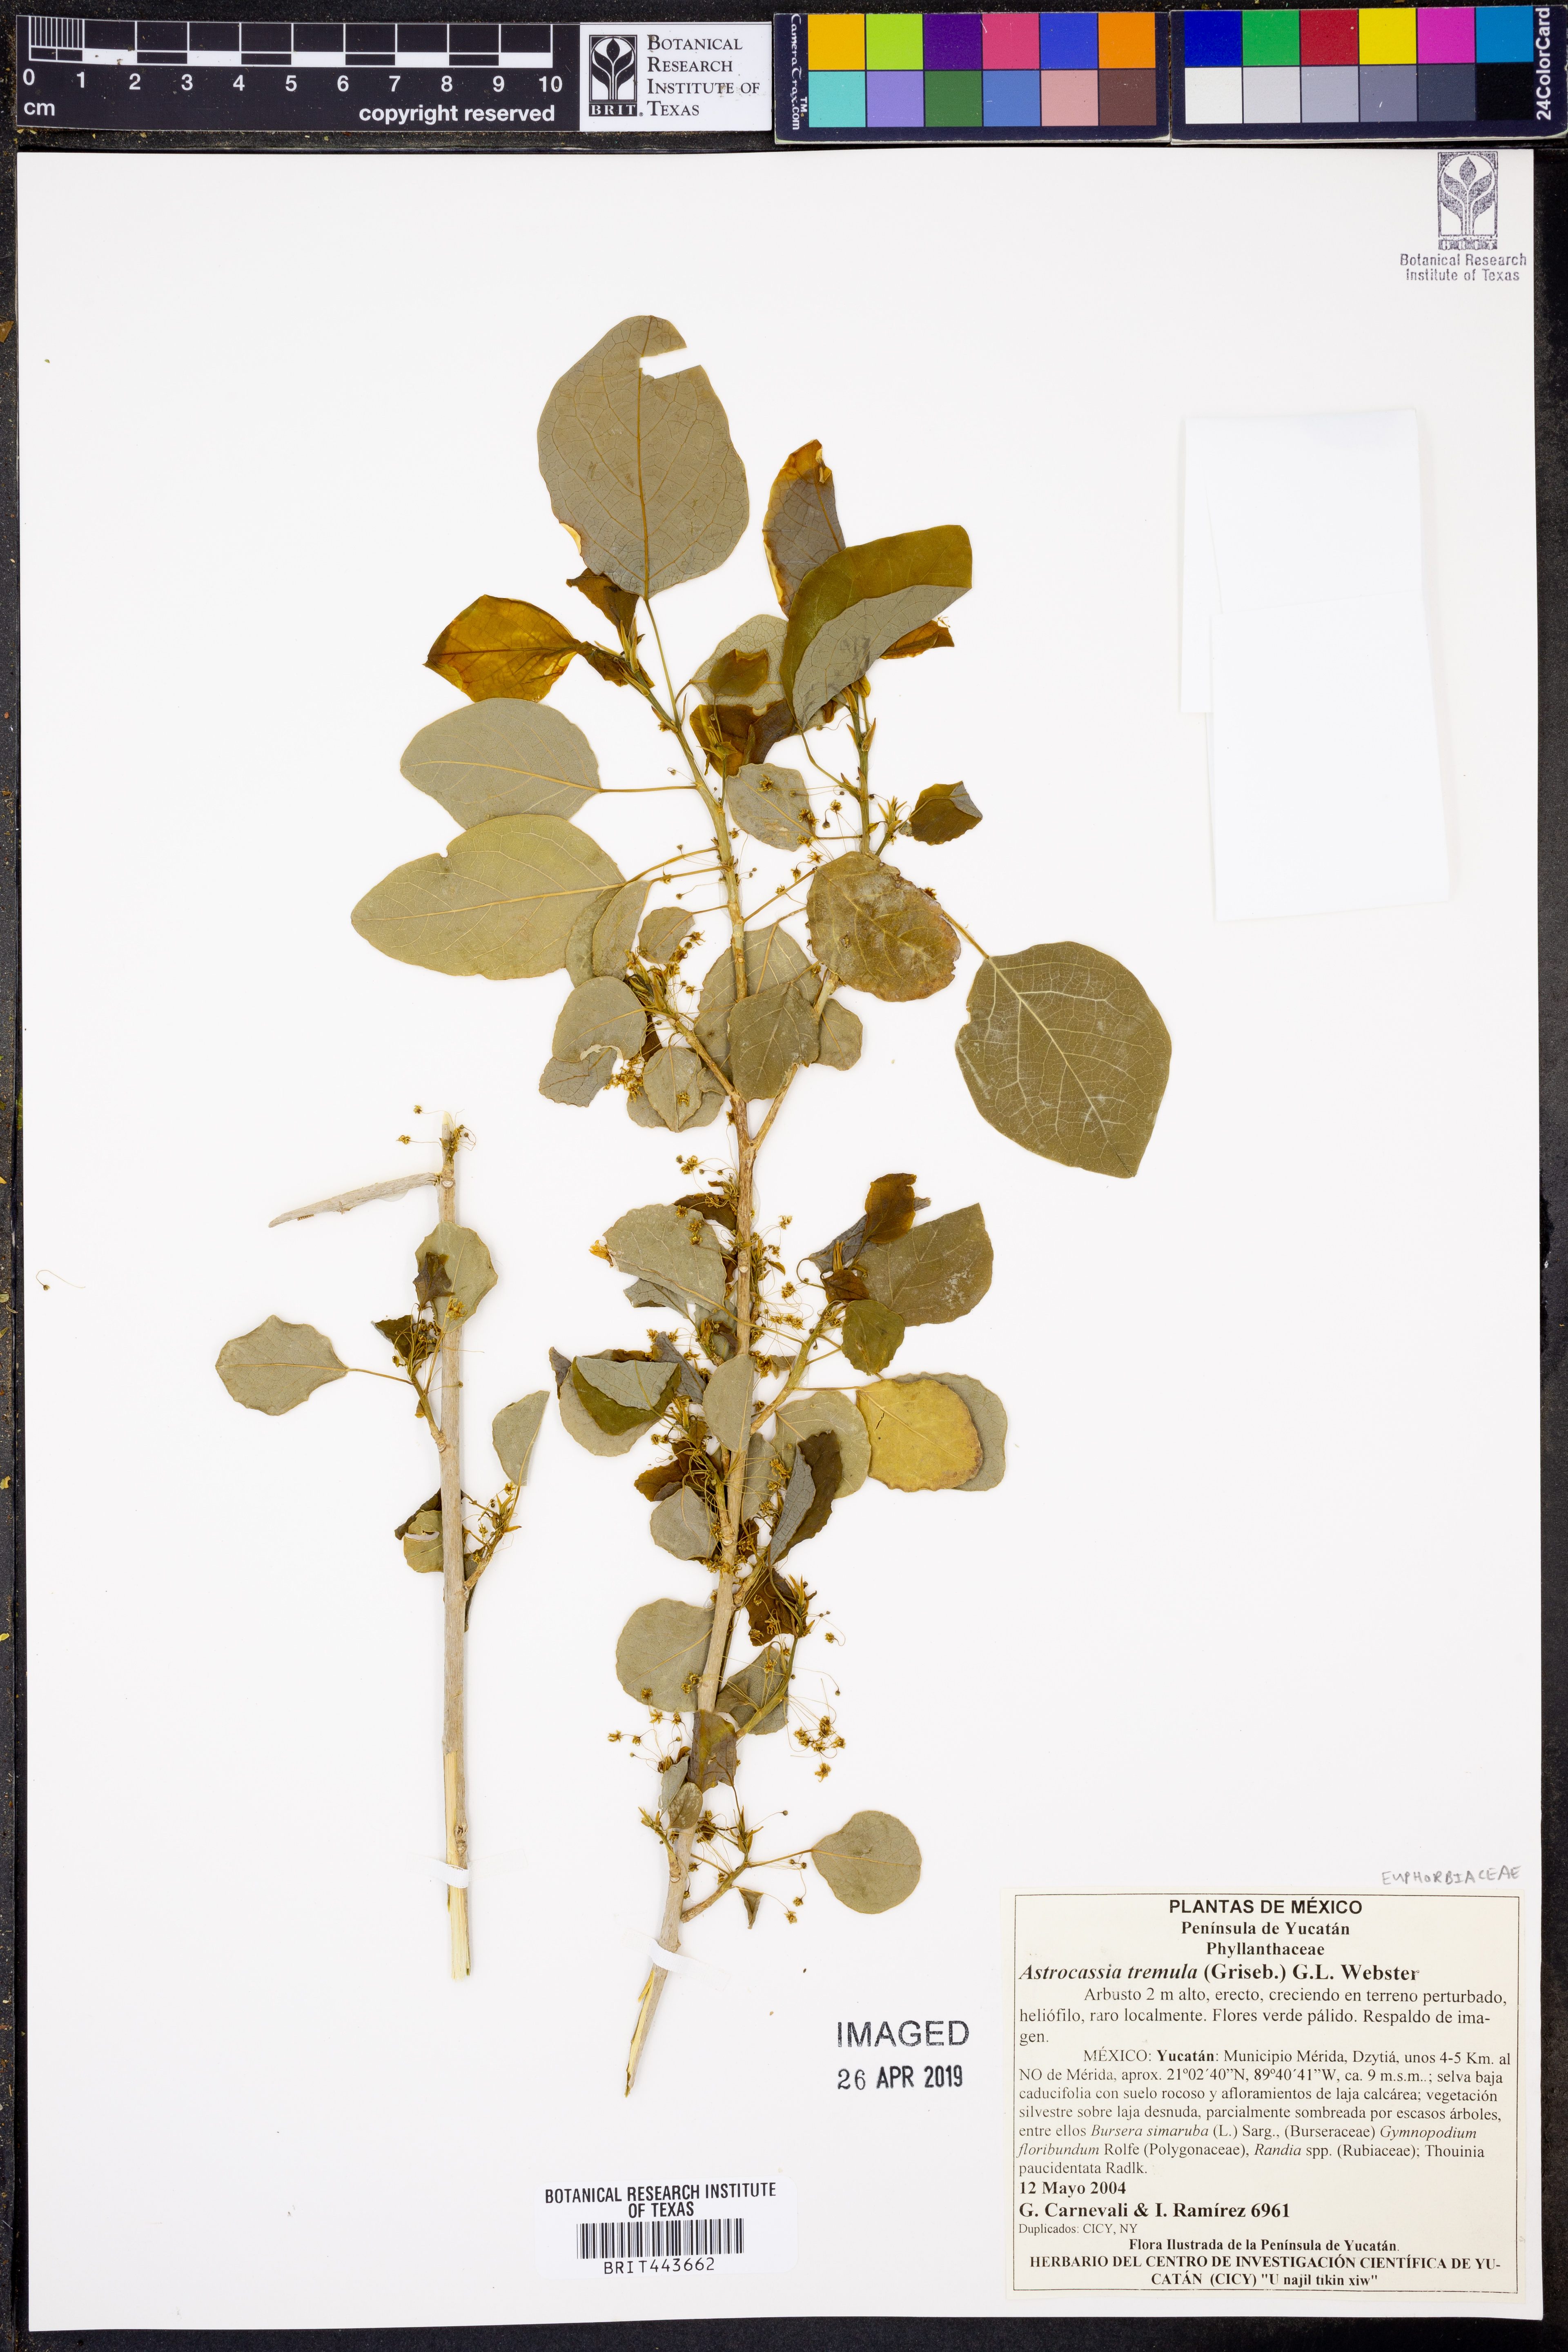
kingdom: Plantae
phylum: Tracheophyta
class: Magnoliopsida
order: Malpighiales
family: Phyllanthaceae
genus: Astrocasia
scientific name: Astrocasia tremula
